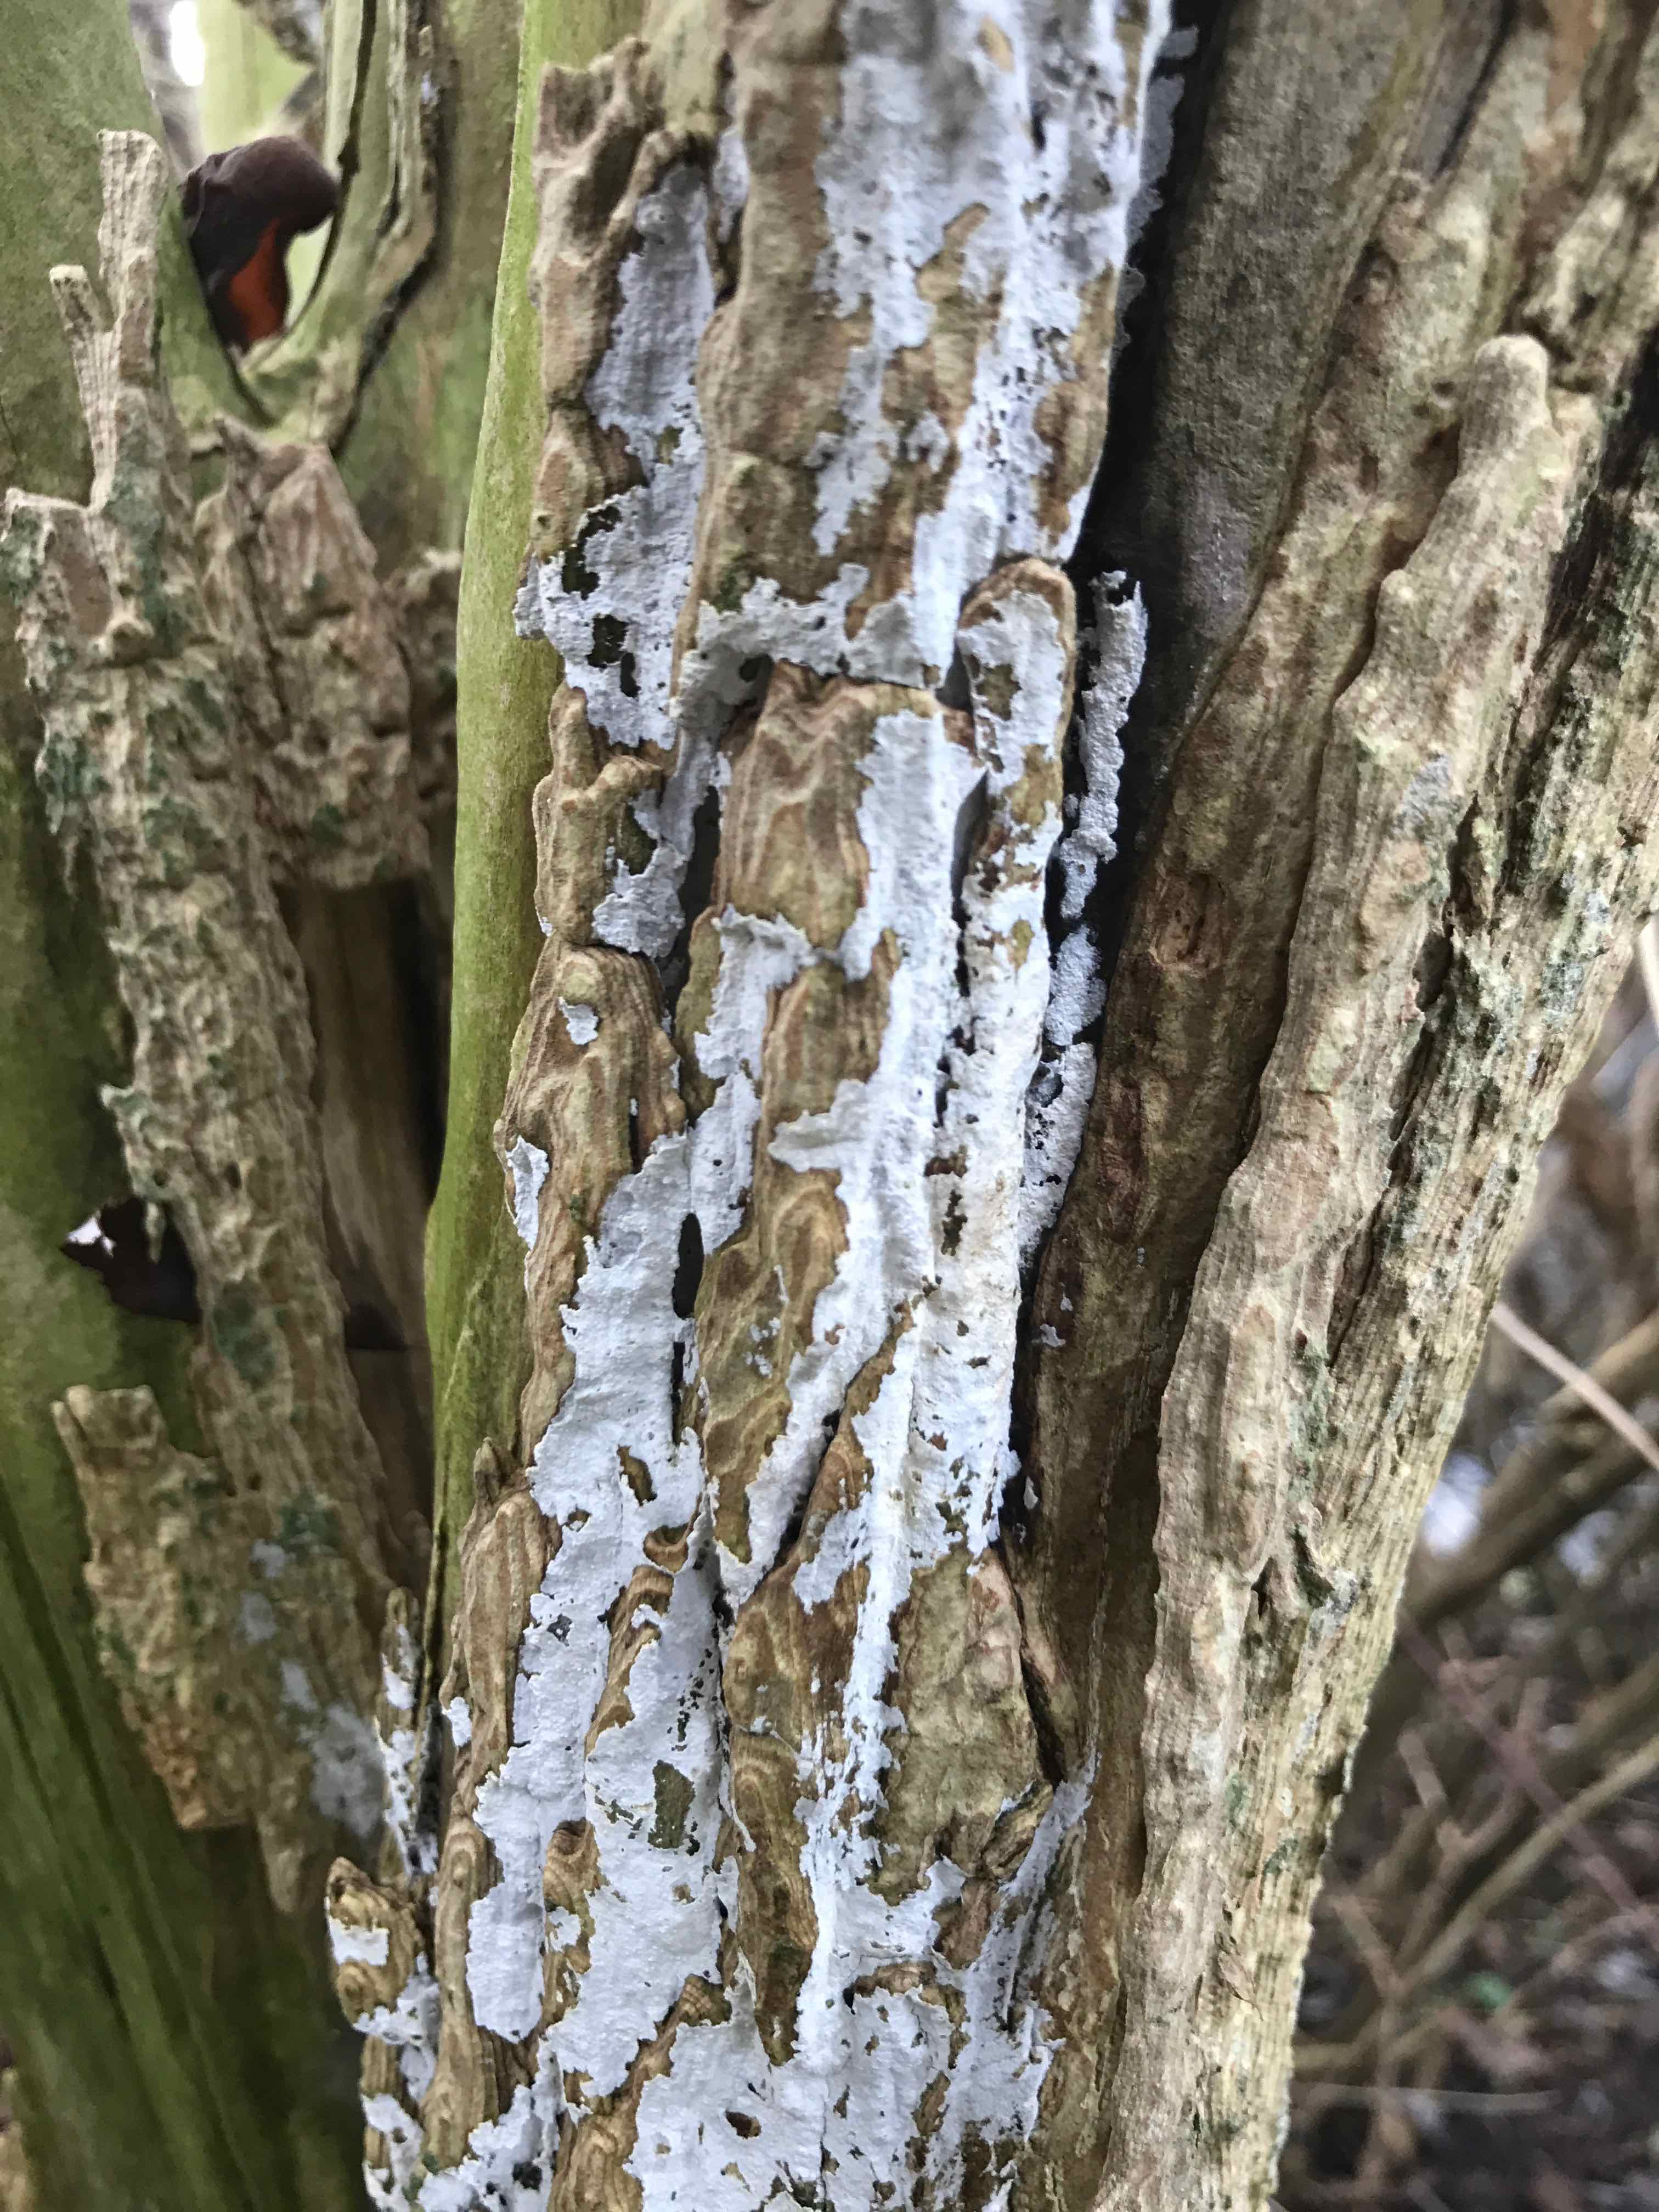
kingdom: Fungi
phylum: Basidiomycota
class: Agaricomycetes
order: Corticiales
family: Corticiaceae
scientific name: Corticiaceae
